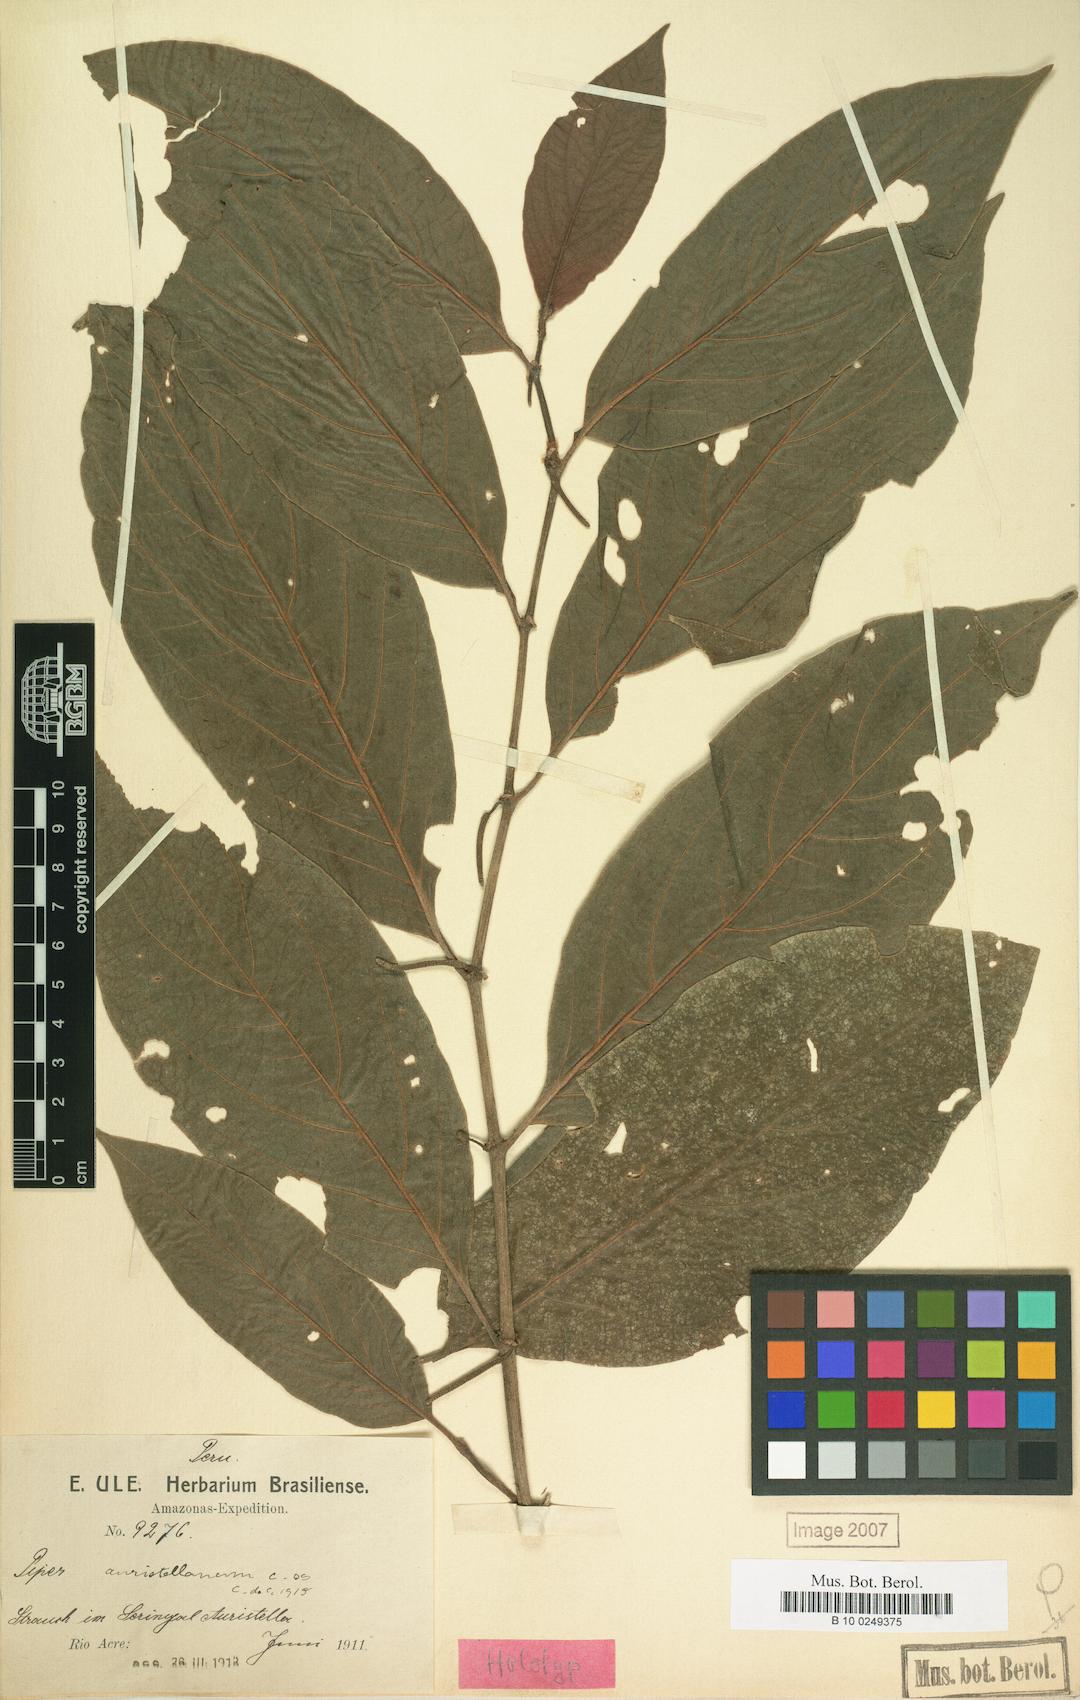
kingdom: Plantae
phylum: Tracheophyta
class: Magnoliopsida
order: Piperales
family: Piperaceae
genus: Piper
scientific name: Piper dumosum
